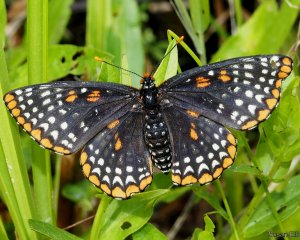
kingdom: Animalia
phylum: Arthropoda
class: Insecta
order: Lepidoptera
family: Nymphalidae
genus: Euphydryas
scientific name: Euphydryas phaeton
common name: Baltimore Checkerspot
